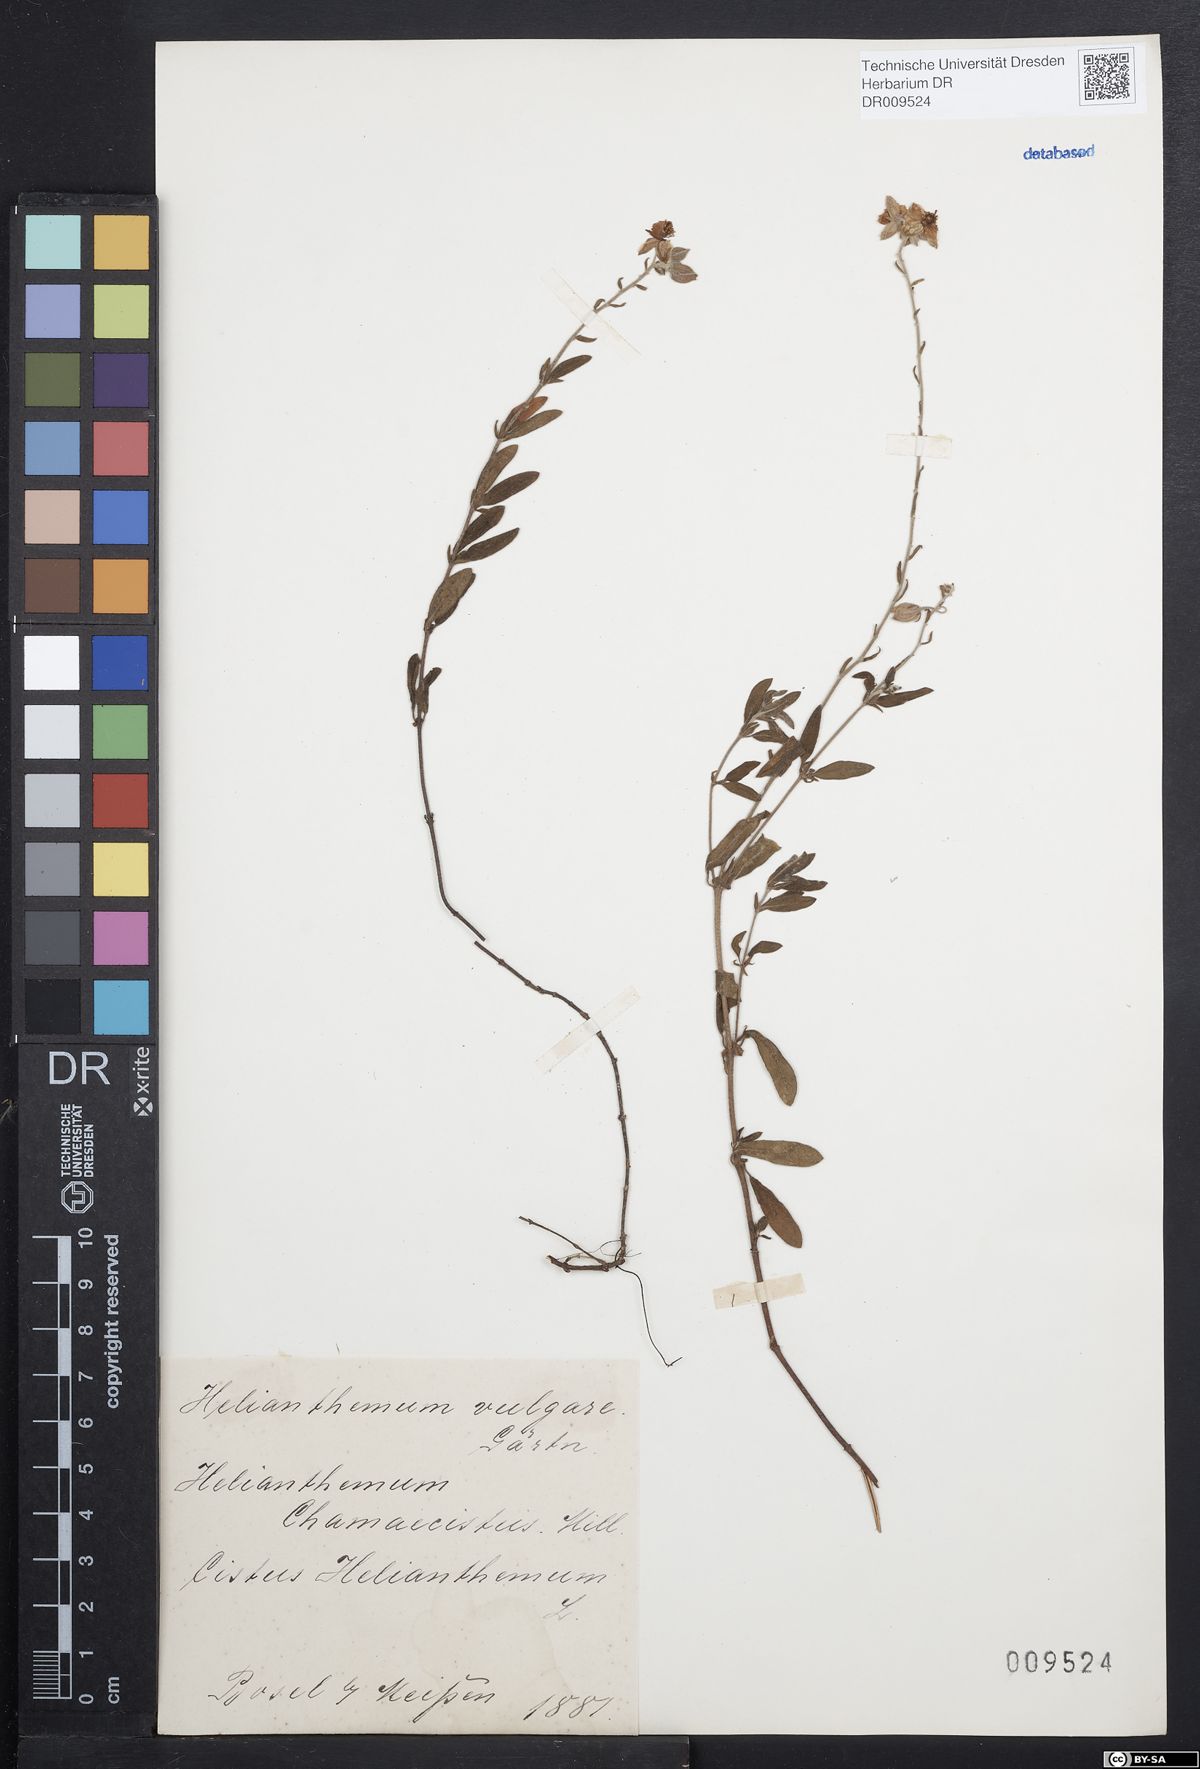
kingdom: Plantae
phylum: Tracheophyta
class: Magnoliopsida
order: Malvales
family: Cistaceae
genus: Helianthemum
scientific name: Helianthemum nummularium
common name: Common rock-rose
